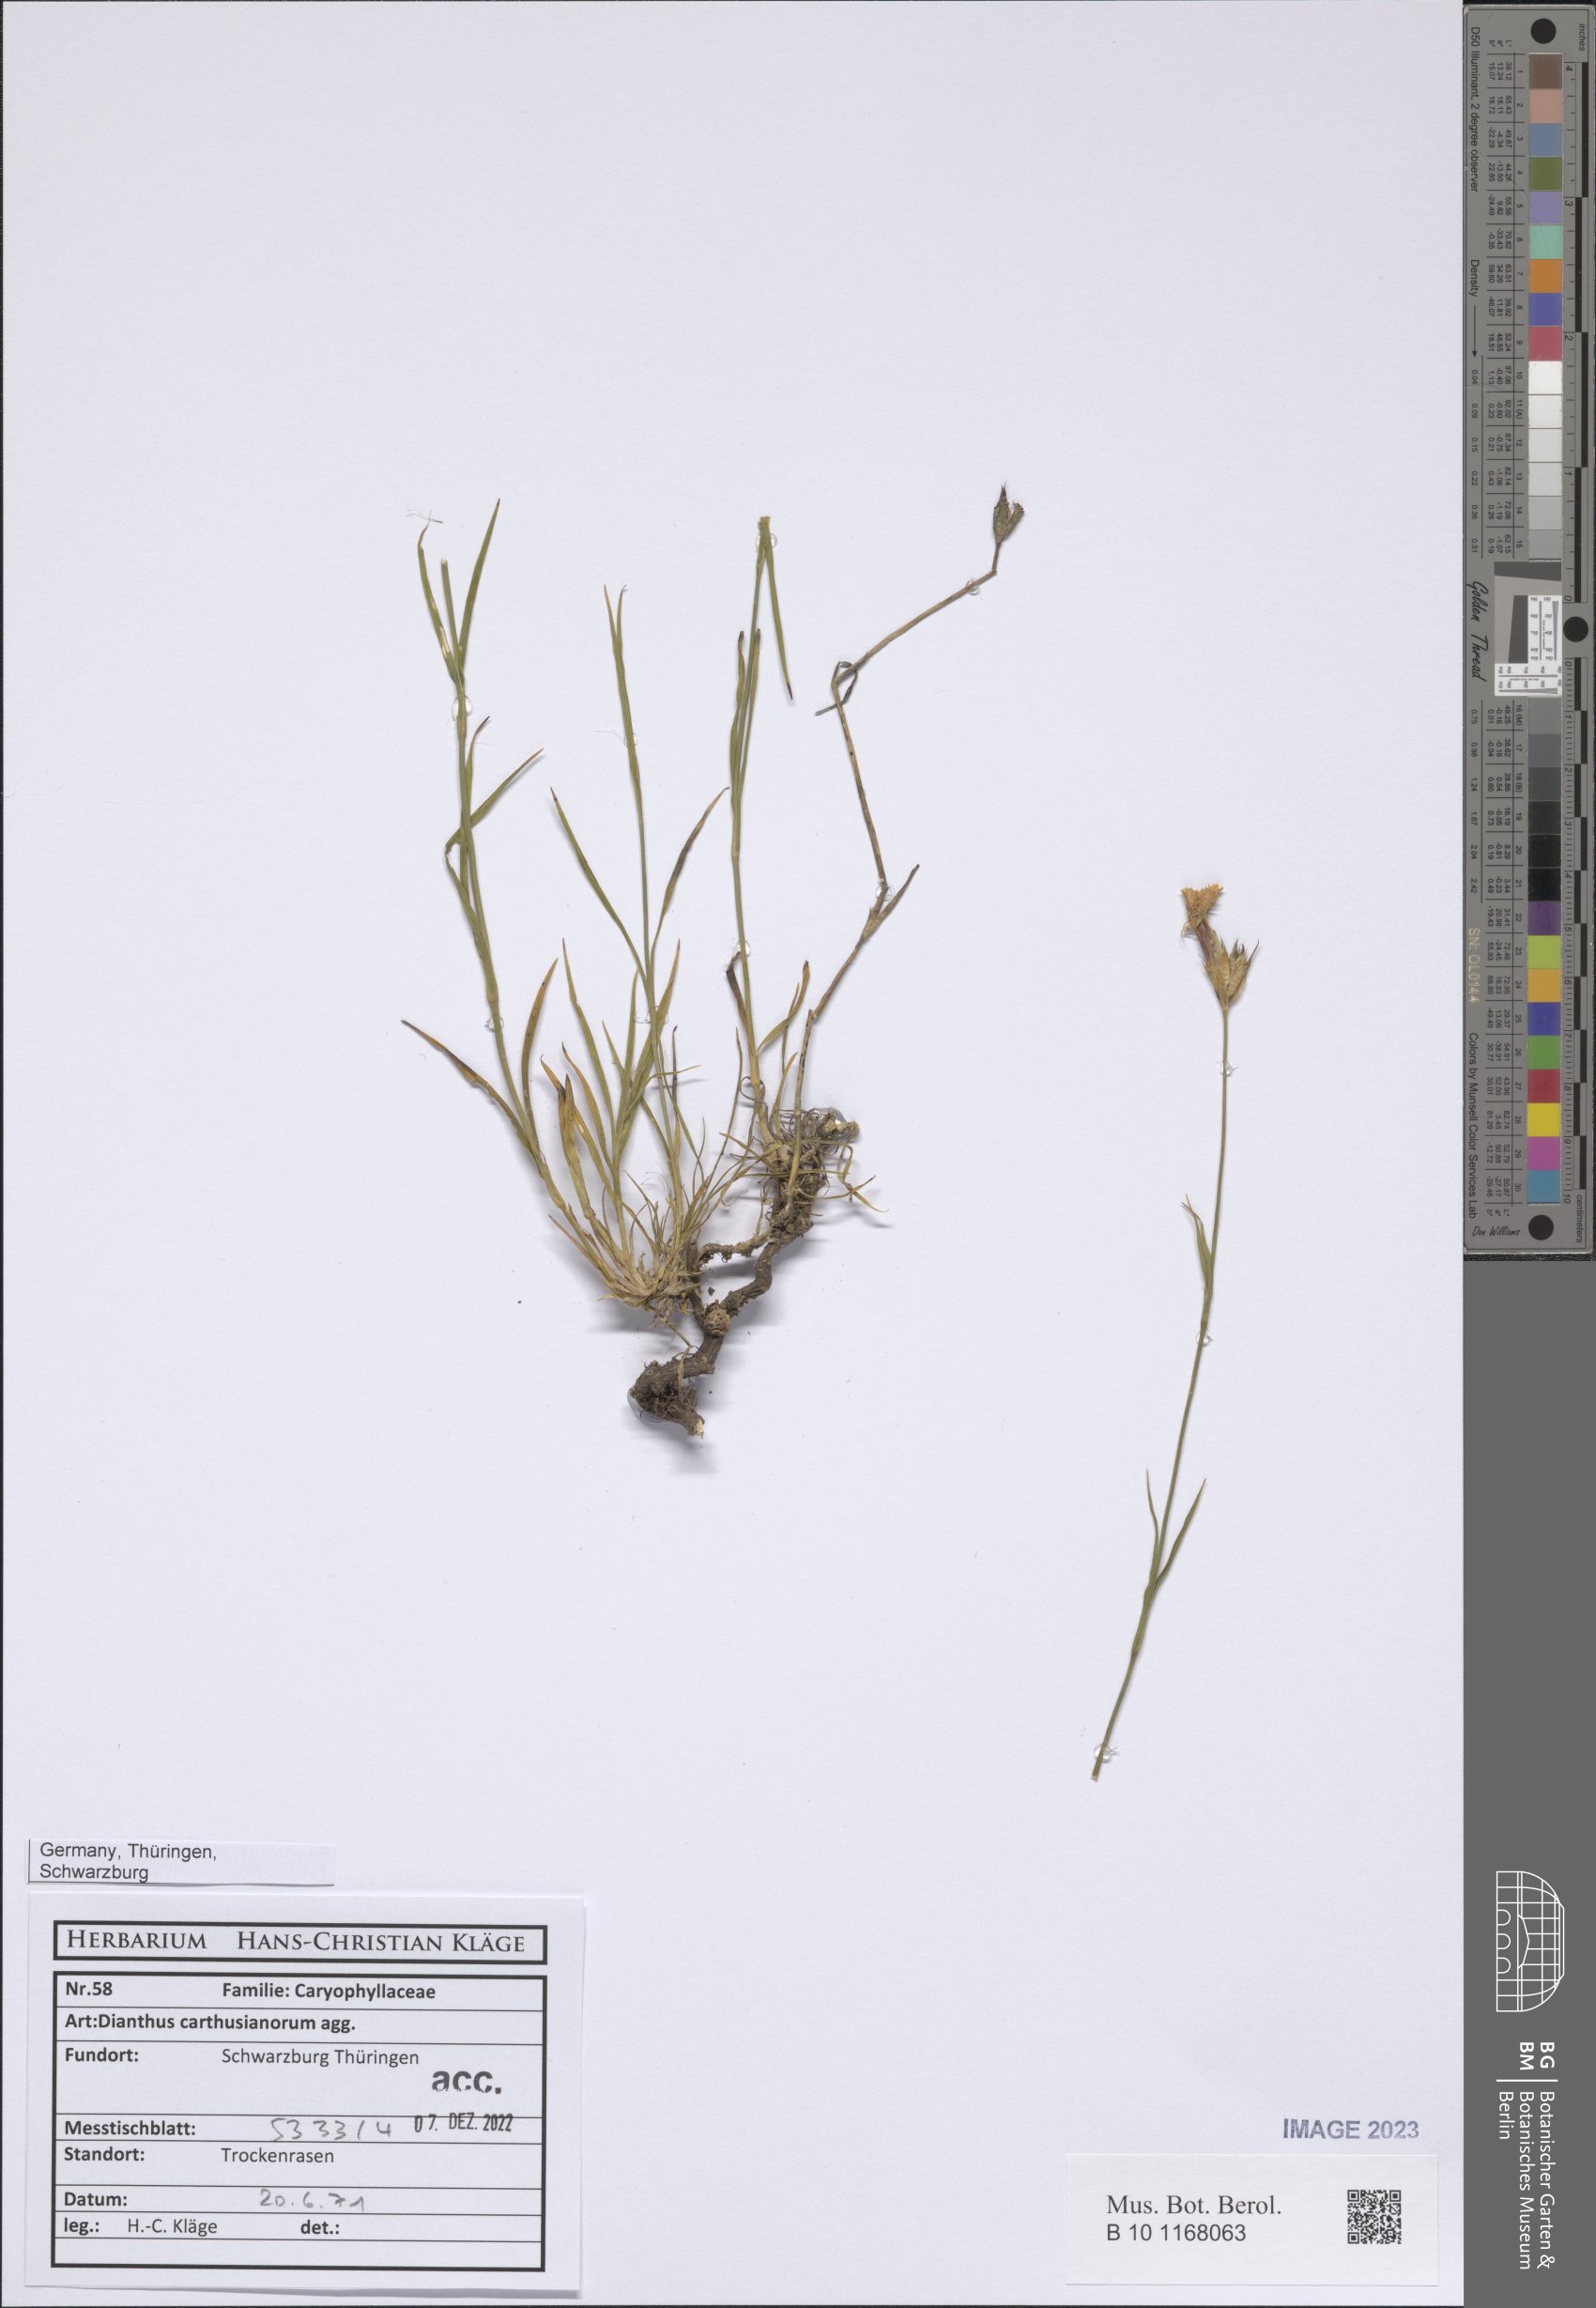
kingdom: Plantae
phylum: Tracheophyta
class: Magnoliopsida
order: Caryophyllales
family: Caryophyllaceae
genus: Dianthus
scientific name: Dianthus carthusianorum
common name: Carthusian pink
